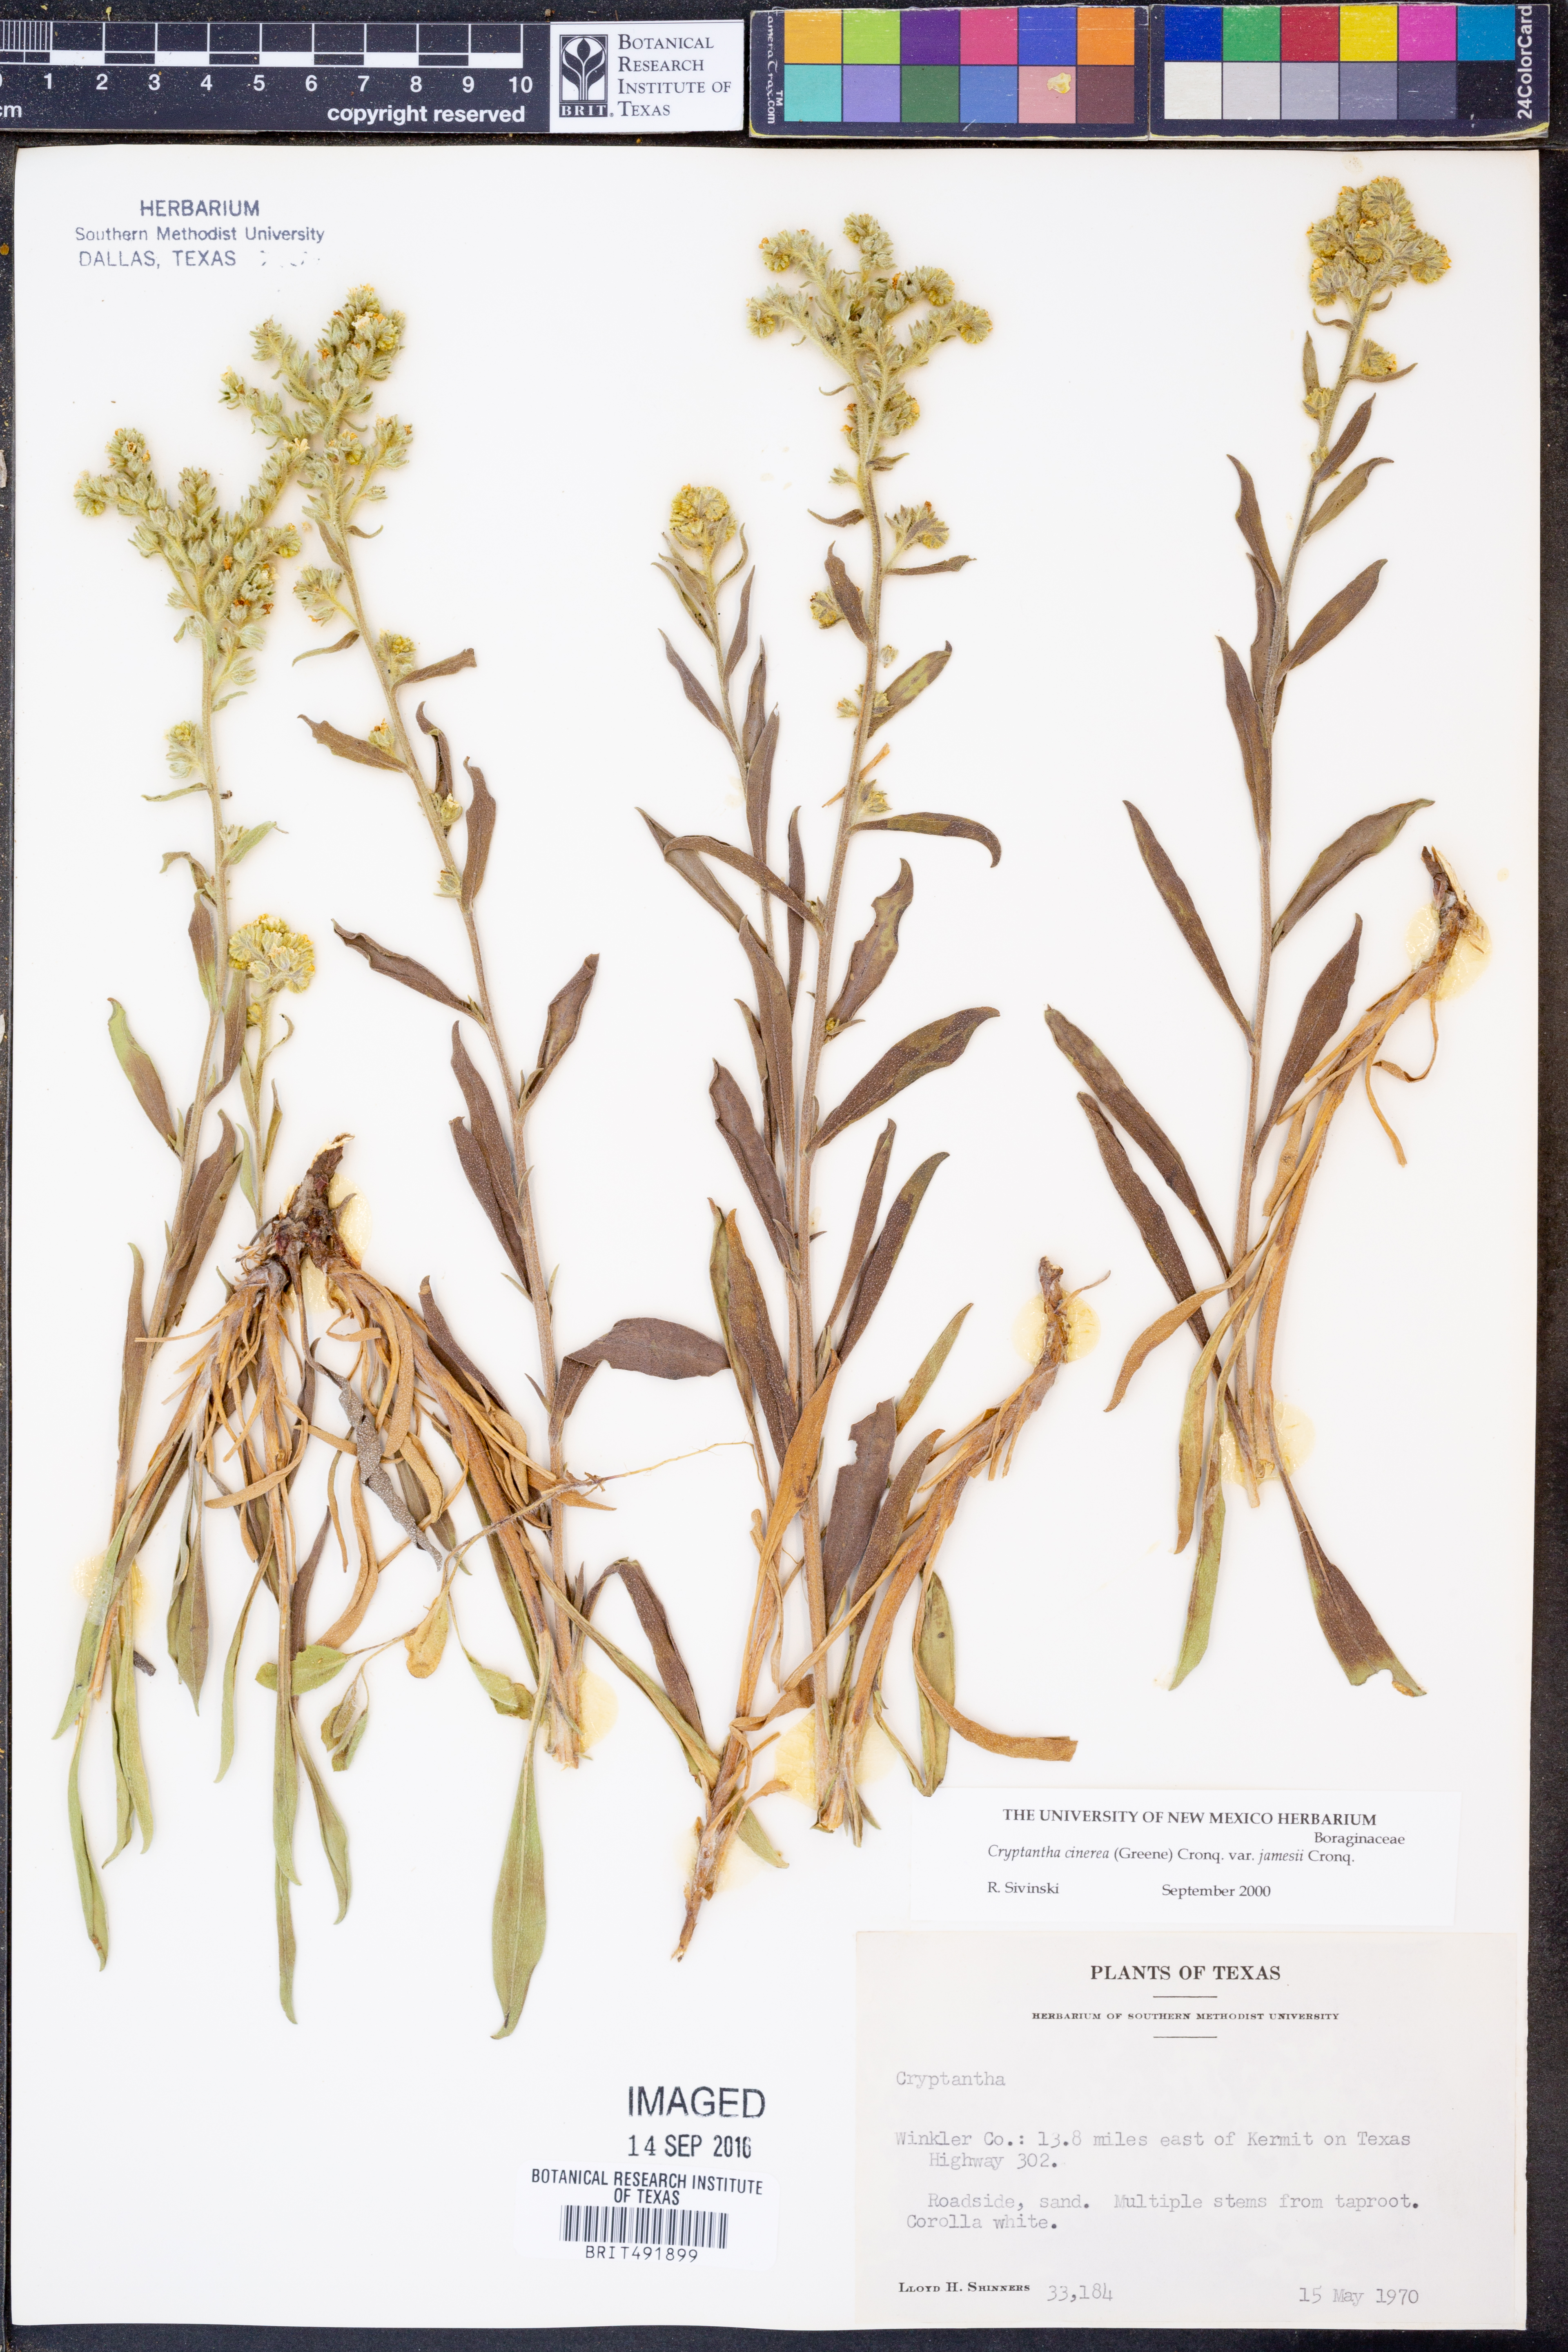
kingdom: Plantae
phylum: Tracheophyta
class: Magnoliopsida
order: Boraginales
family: Boraginaceae
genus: Oreocarya
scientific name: Oreocarya suffruticosa
